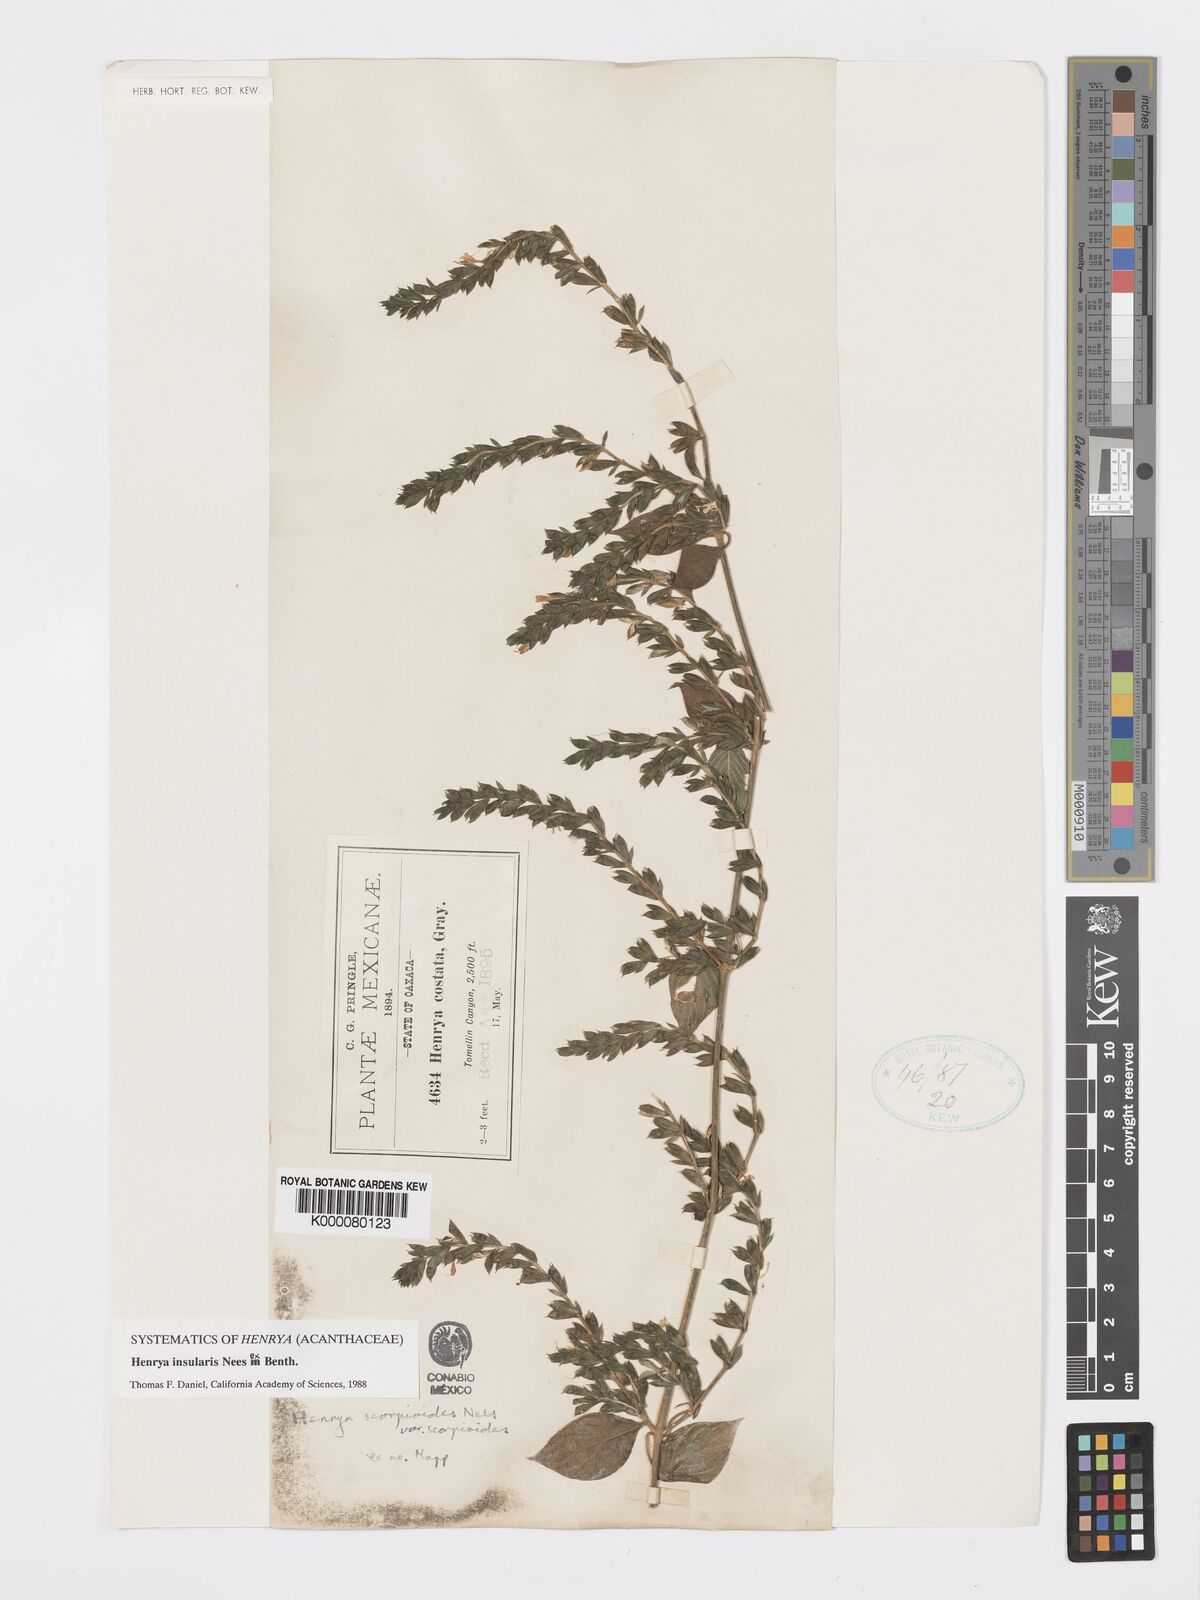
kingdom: Plantae
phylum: Tracheophyta
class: Magnoliopsida
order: Lamiales
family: Acanthaceae
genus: Henrya
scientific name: Henrya
